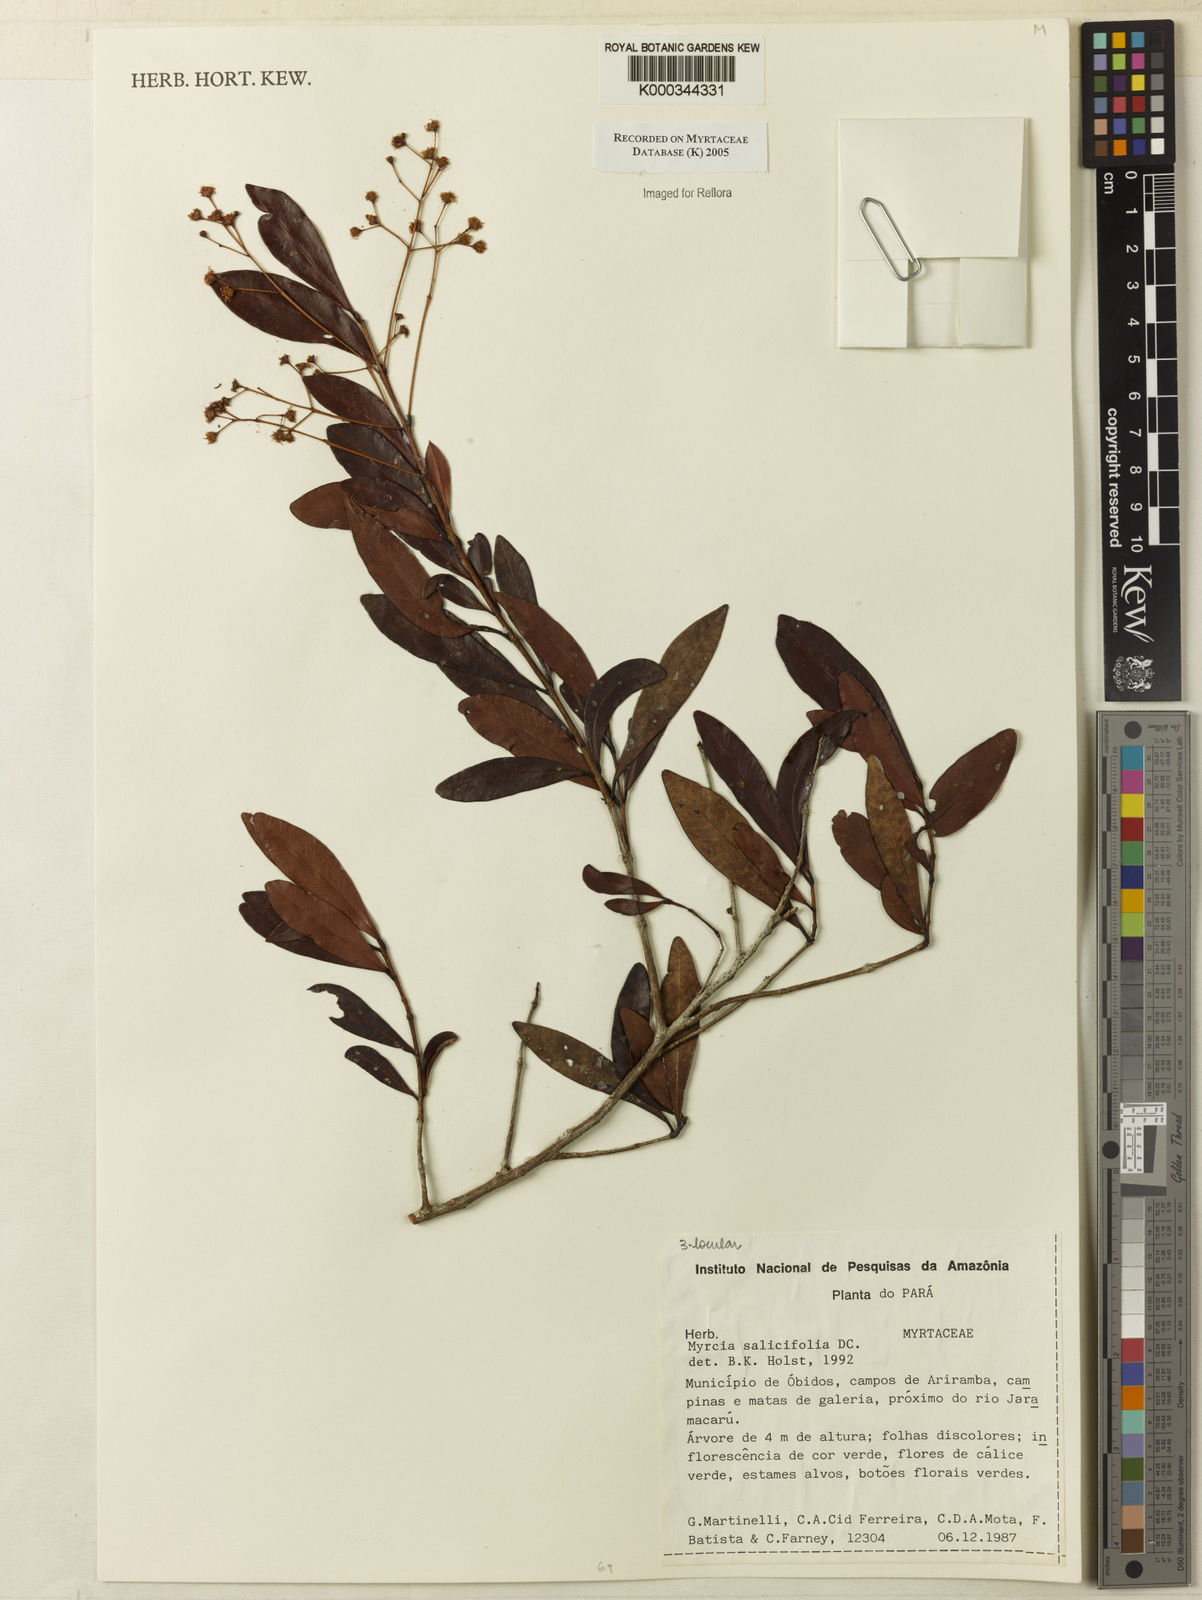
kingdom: Plantae
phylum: Tracheophyta
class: Magnoliopsida
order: Myrtales
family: Myrtaceae
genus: Myrcia
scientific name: Myrcia salicifolia
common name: Insulin plant
